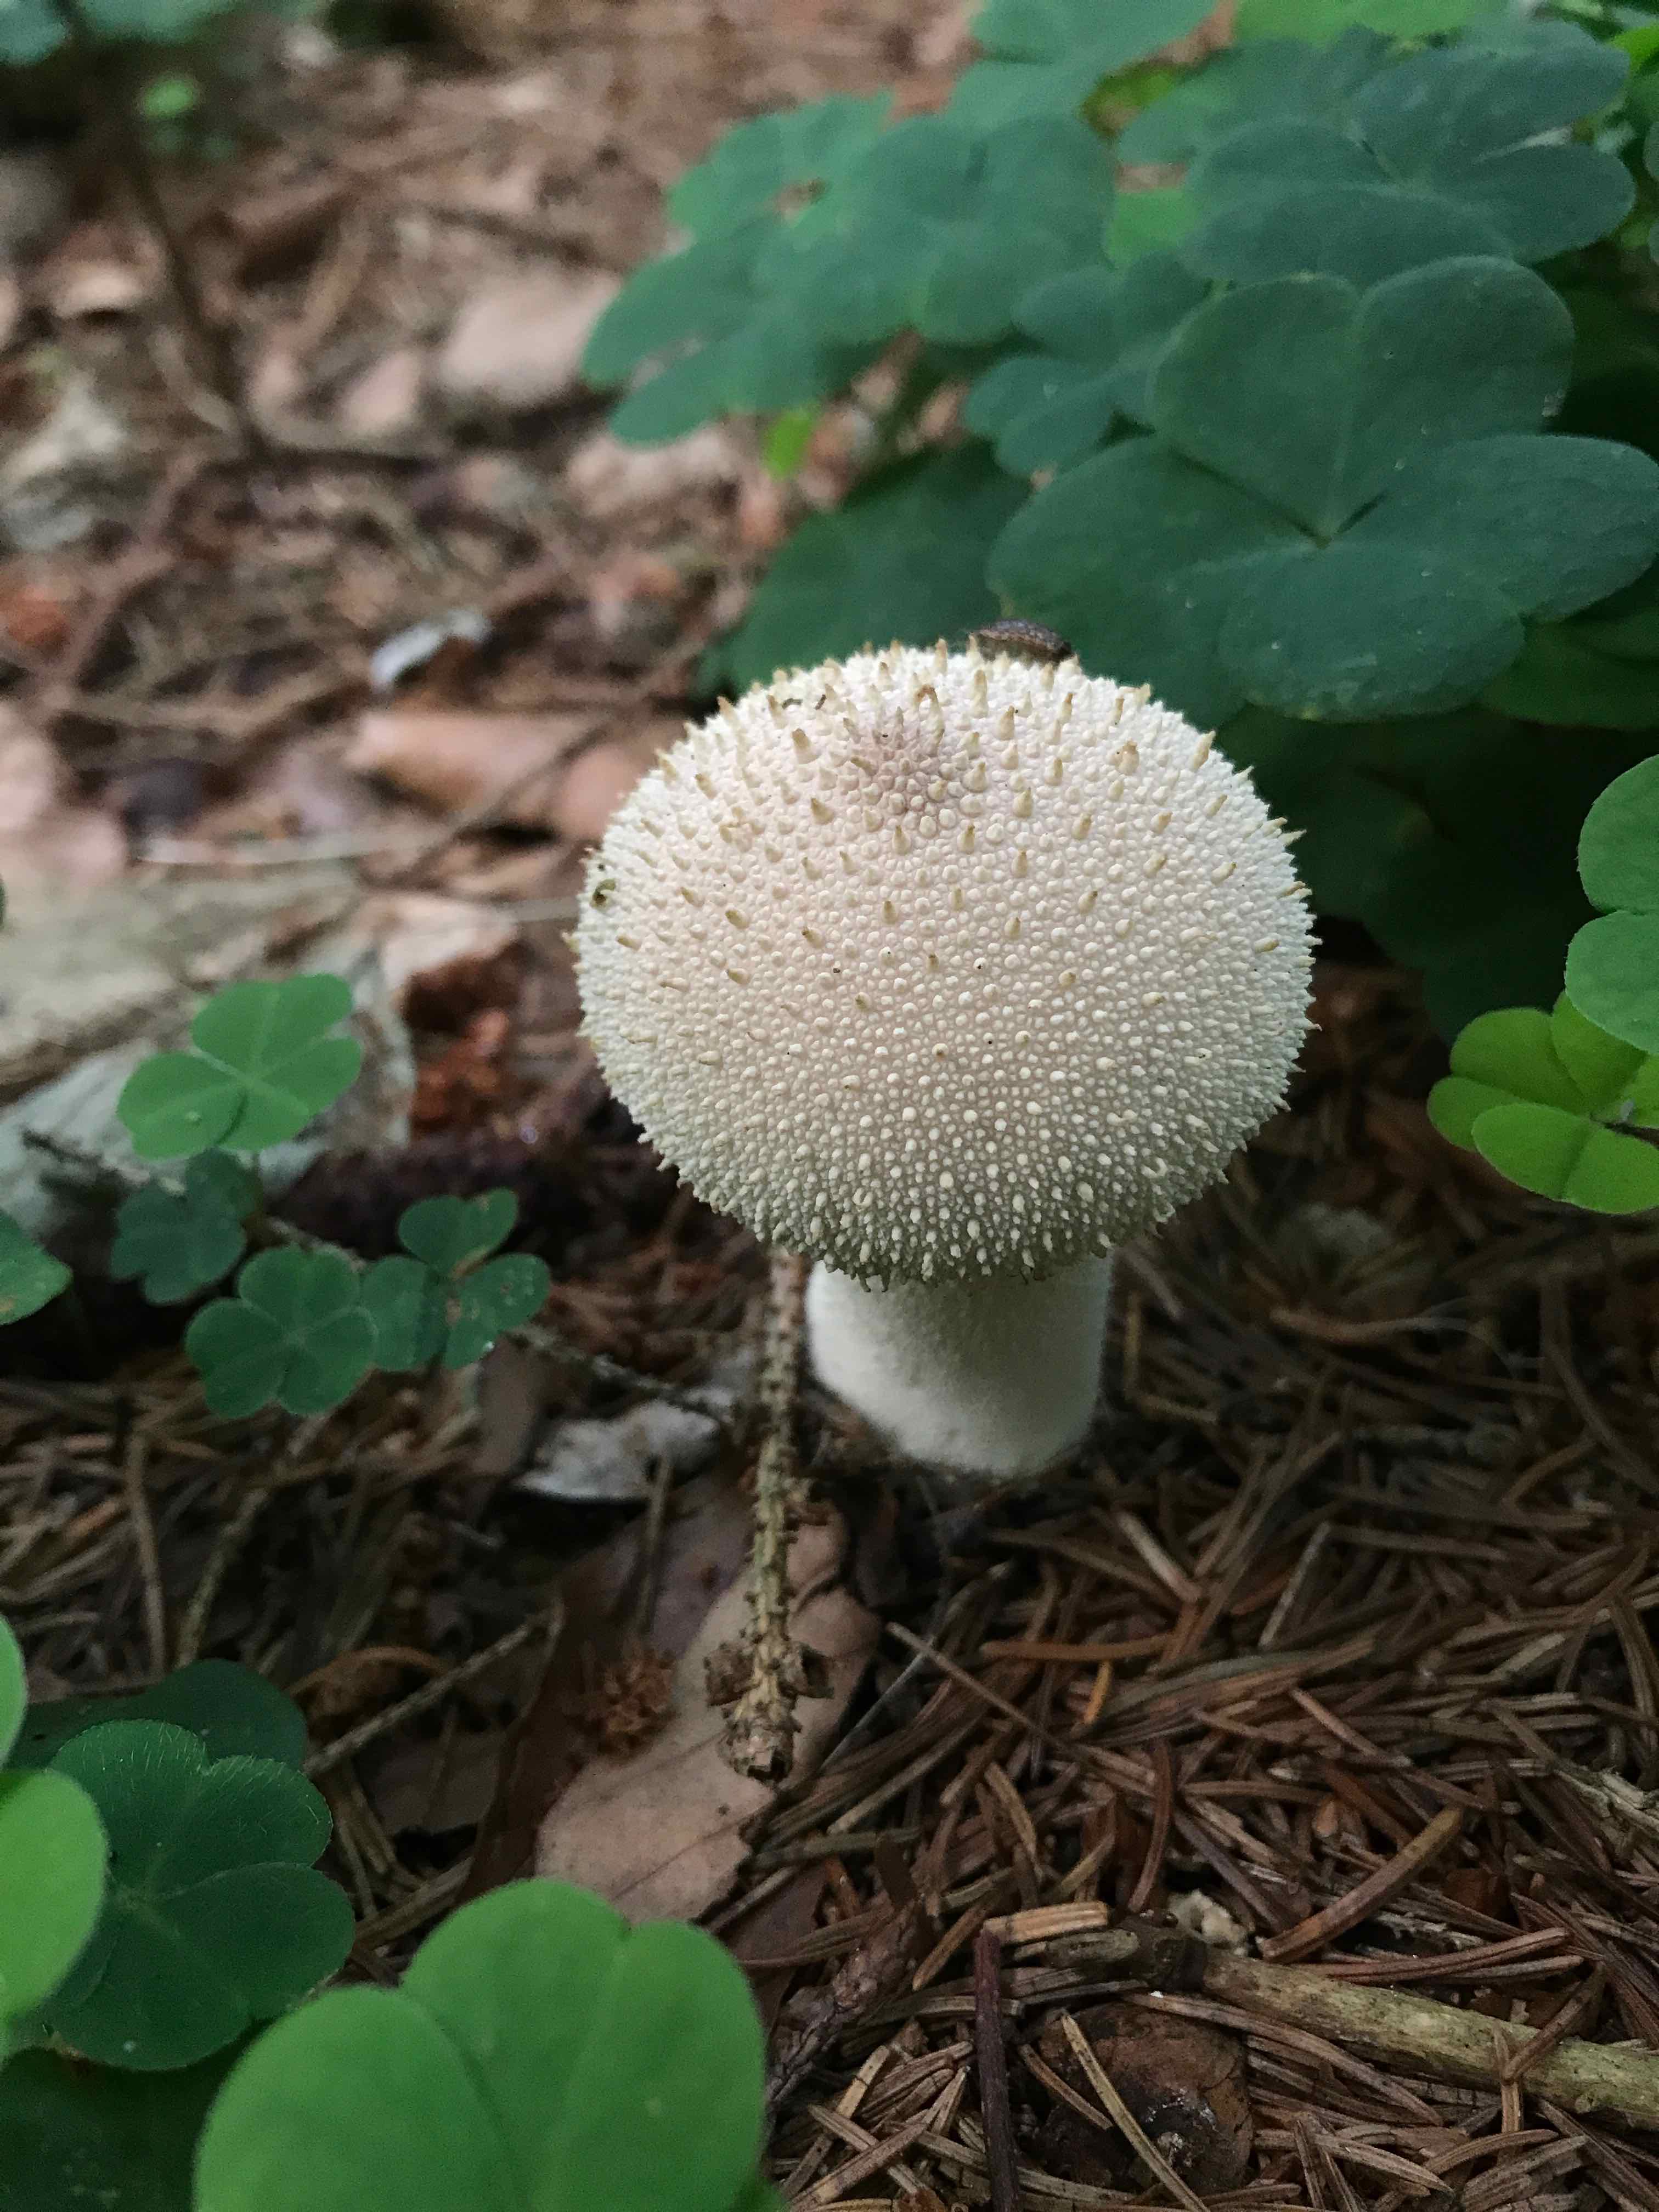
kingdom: Fungi
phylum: Basidiomycota
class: Agaricomycetes
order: Agaricales
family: Lycoperdaceae
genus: Lycoperdon
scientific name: Lycoperdon perlatum
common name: krystal-støvbold
